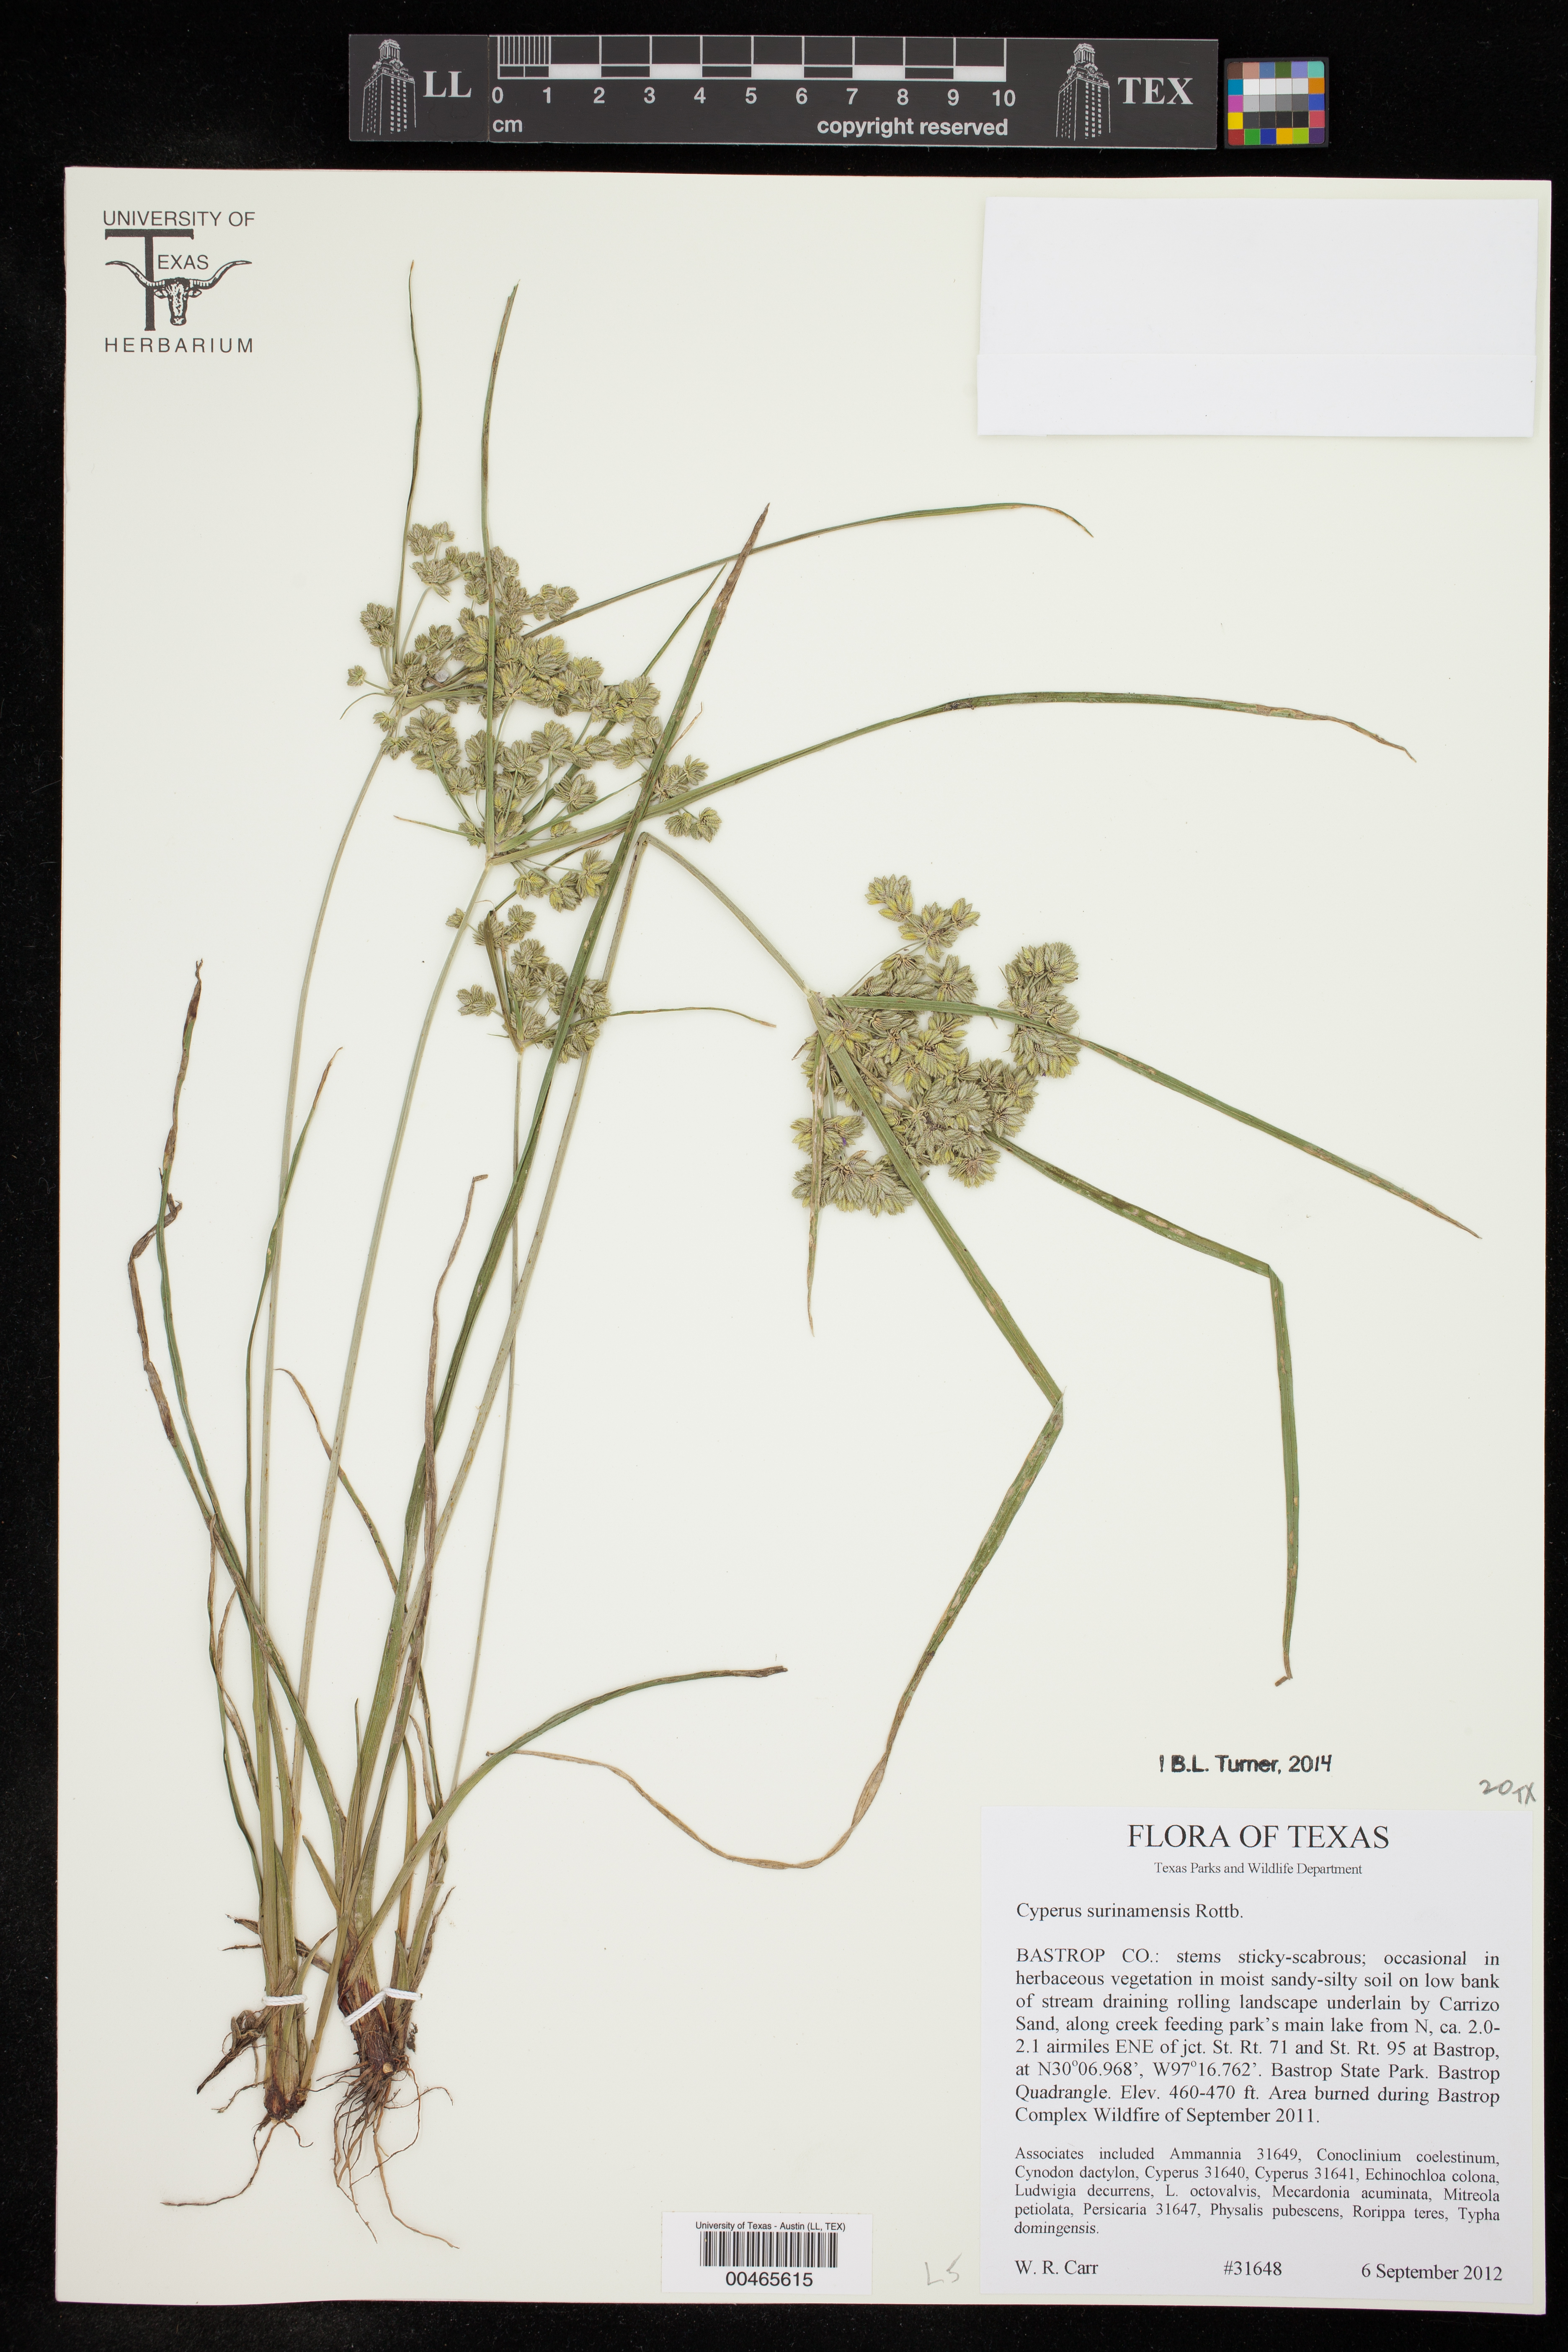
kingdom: Plantae
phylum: Tracheophyta
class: Liliopsida
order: Poales
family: Cyperaceae
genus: Cyperus
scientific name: Cyperus surinamensis
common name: Tropical flat sedge
